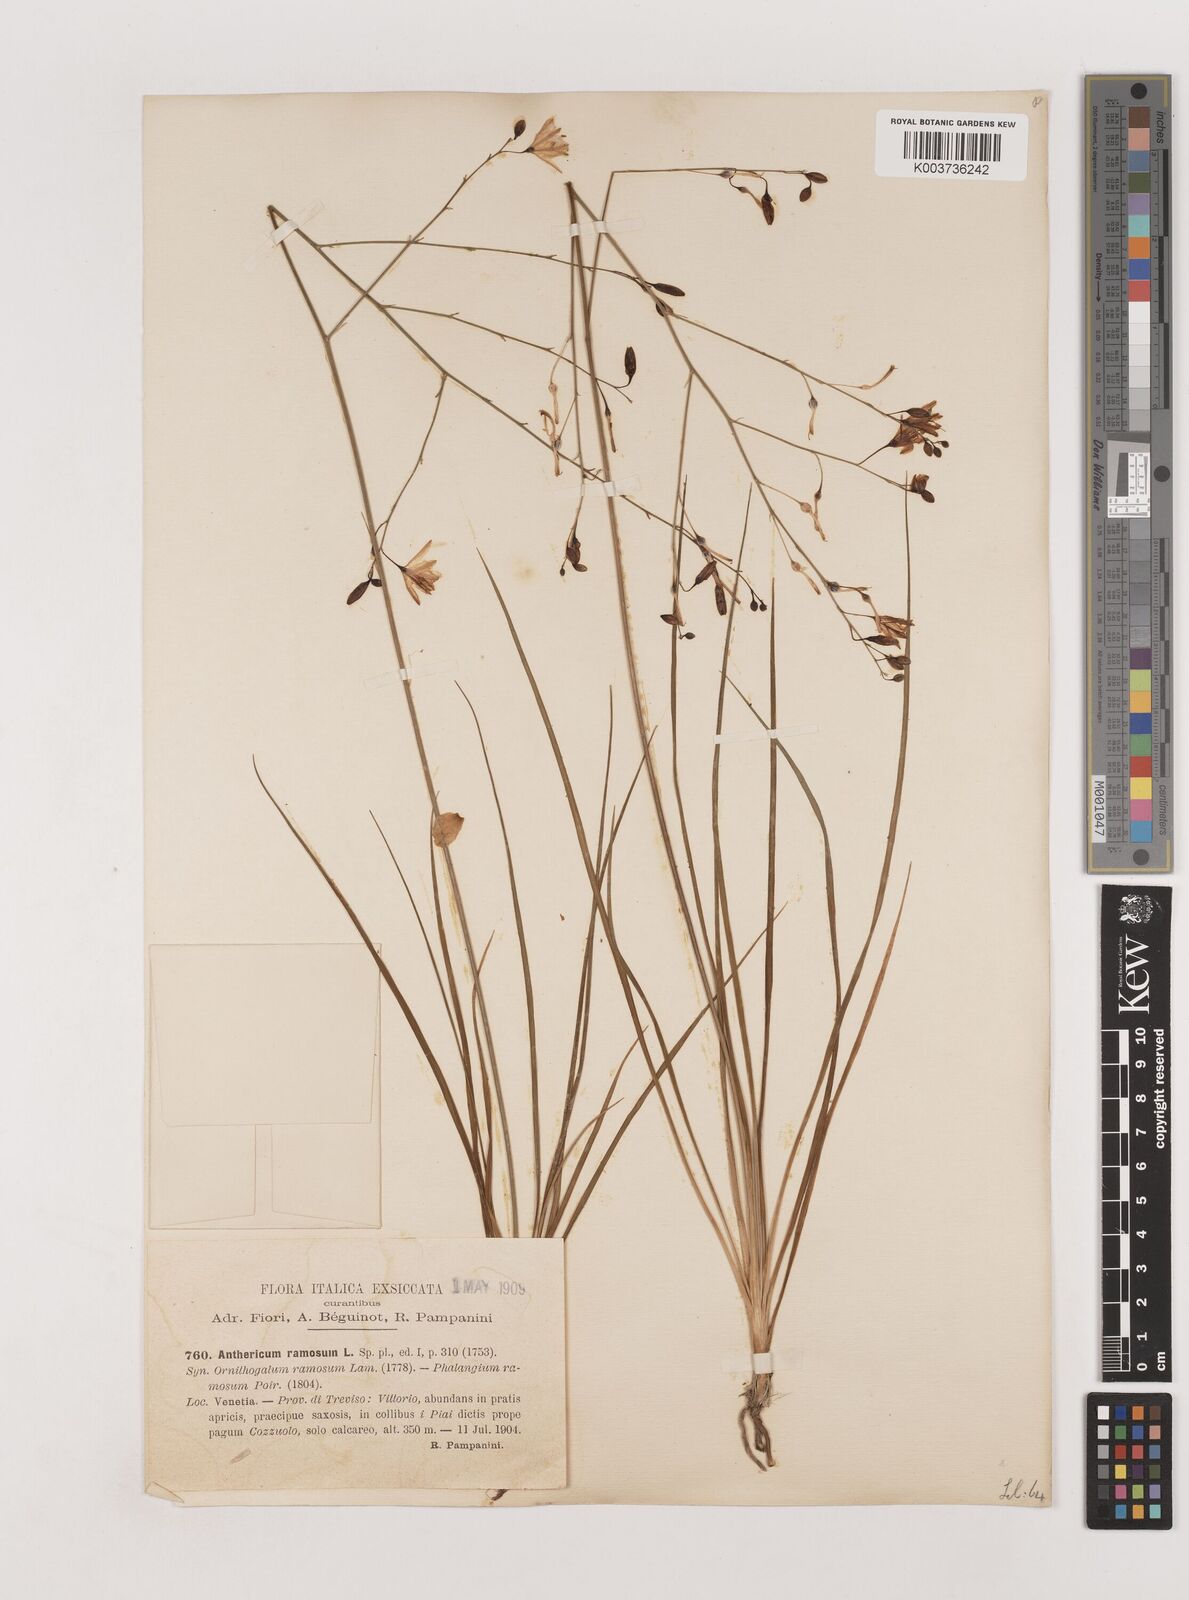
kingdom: Plantae
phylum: Tracheophyta
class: Liliopsida
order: Asparagales
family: Asparagaceae
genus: Anthericum
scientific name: Anthericum
